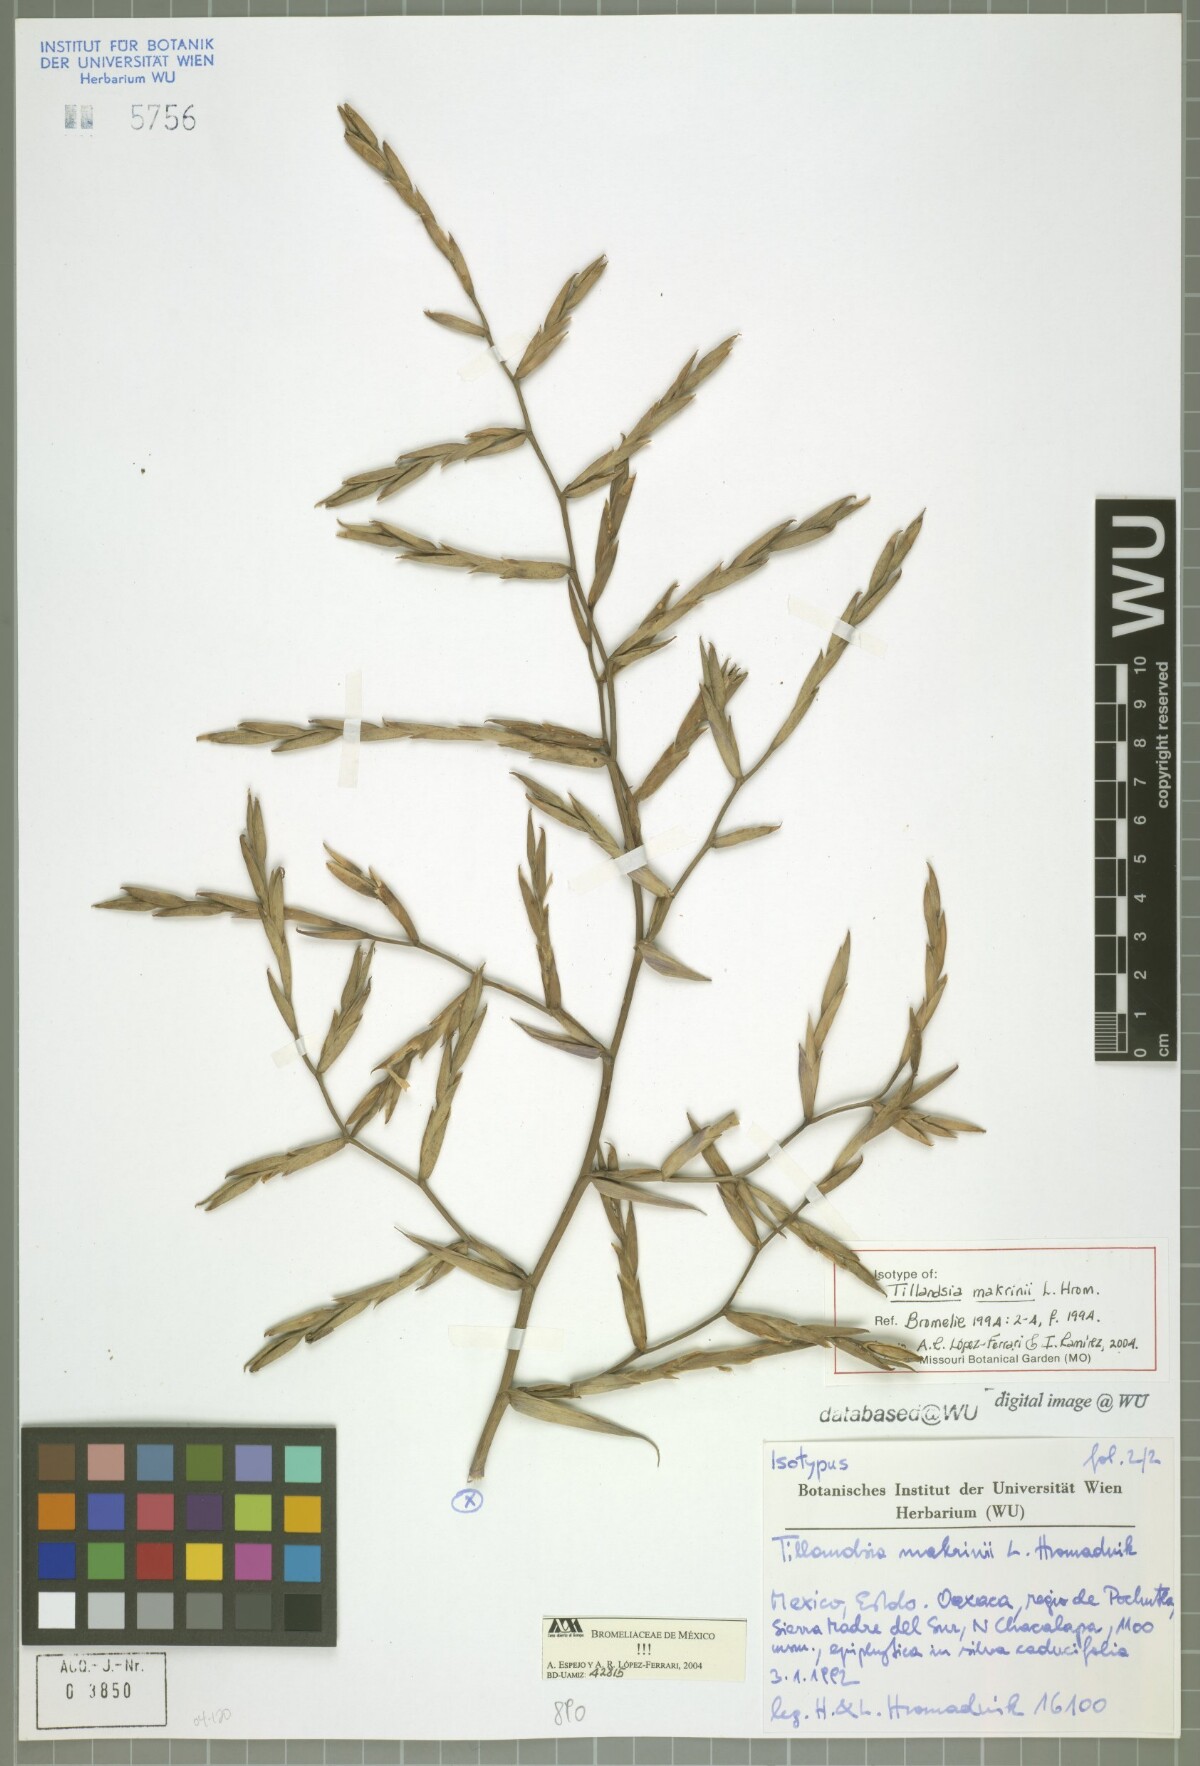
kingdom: Plantae
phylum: Tracheophyta
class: Liliopsida
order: Poales
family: Bromeliaceae
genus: Tillandsia
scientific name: Tillandsia makrinii
